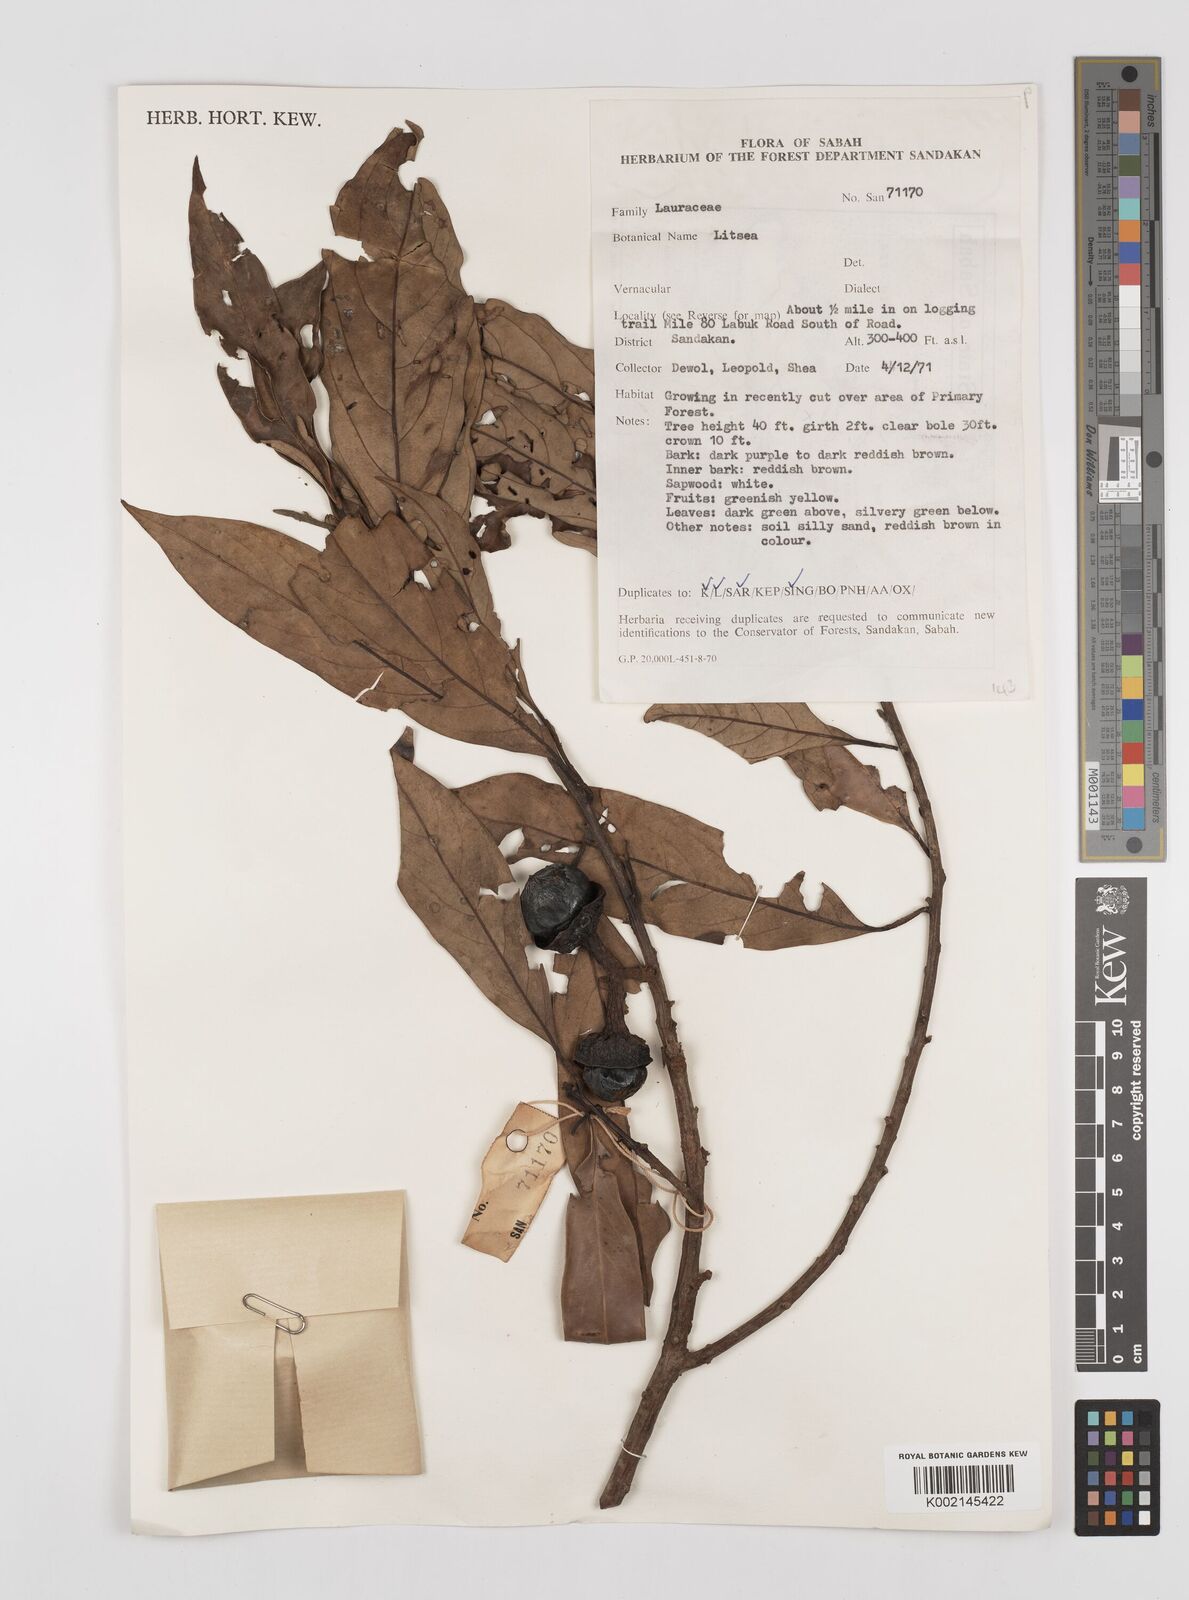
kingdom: Plantae
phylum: Tracheophyta
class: Magnoliopsida
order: Laurales
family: Lauraceae
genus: Litsea
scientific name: Litsea
